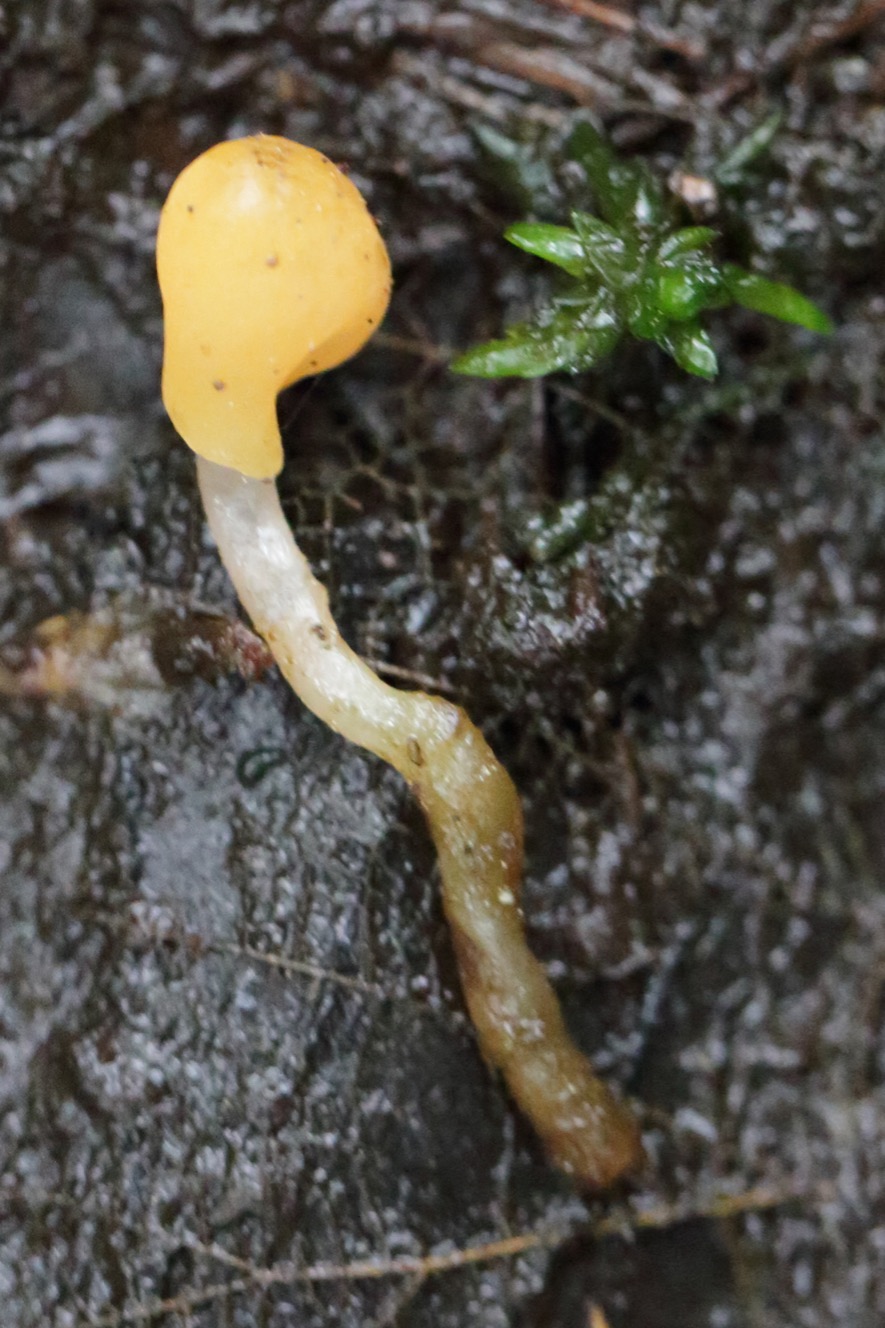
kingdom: Fungi
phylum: Ascomycota
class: Leotiomycetes
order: Helotiales
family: Cenangiaceae
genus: Mitrula
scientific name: Mitrula paludosa
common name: Gul nøkketunge
